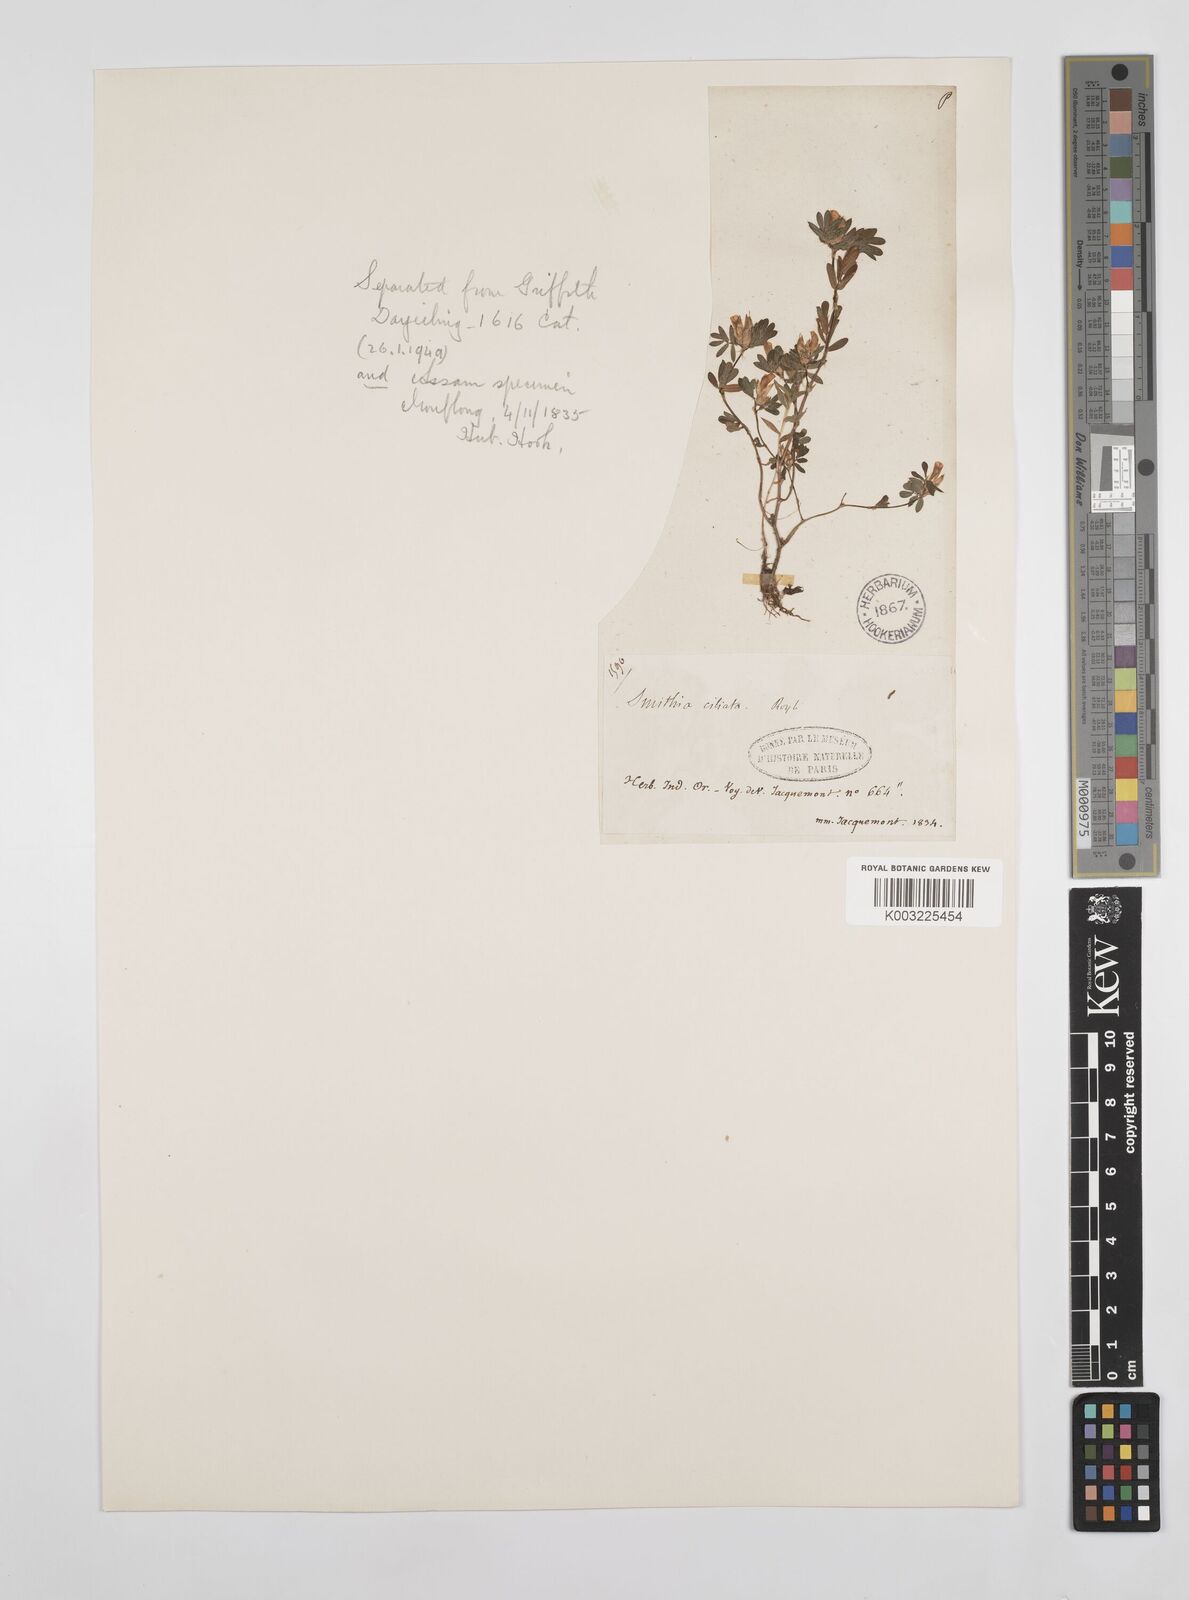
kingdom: Plantae
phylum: Tracheophyta
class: Magnoliopsida
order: Fabales
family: Fabaceae
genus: Smithia
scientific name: Smithia ciliata
